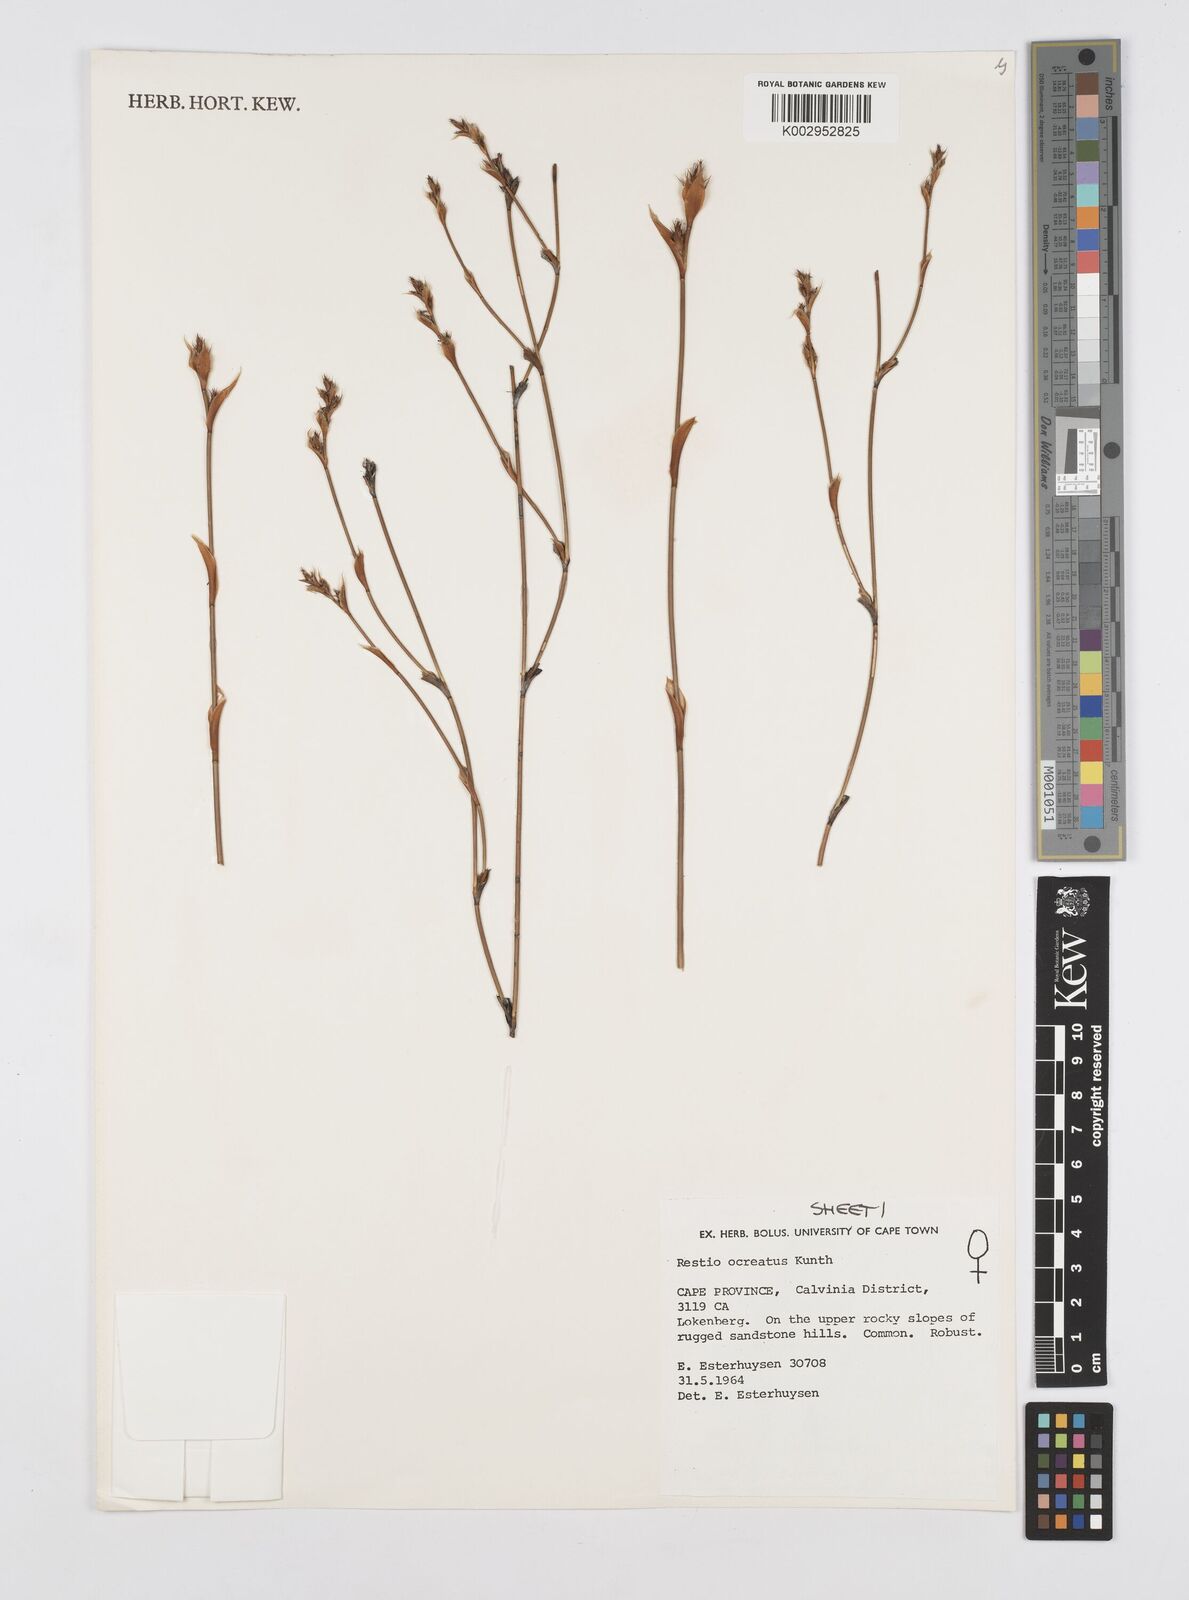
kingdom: Plantae
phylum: Tracheophyta
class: Liliopsida
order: Poales
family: Restionaceae
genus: Restio
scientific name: Restio ocreatus
